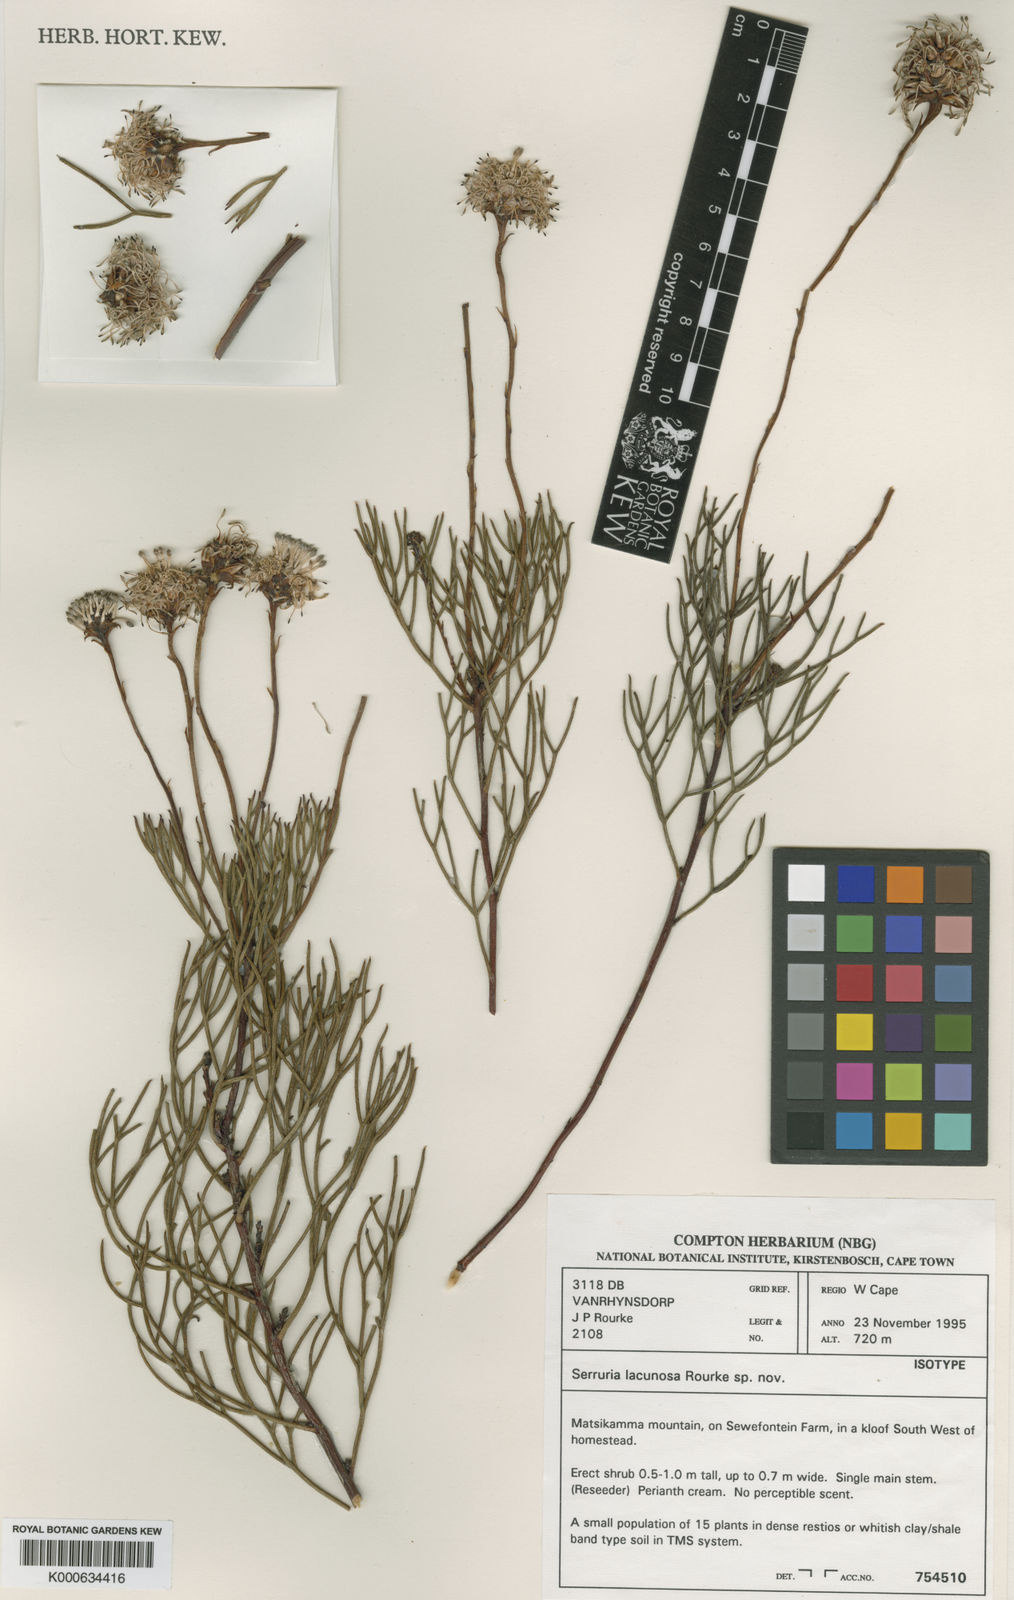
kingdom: Plantae
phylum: Tracheophyta
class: Magnoliopsida
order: Proteales
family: Proteaceae
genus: Serruria
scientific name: Serruria lacunosa
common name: Matsikamma spiderhead
